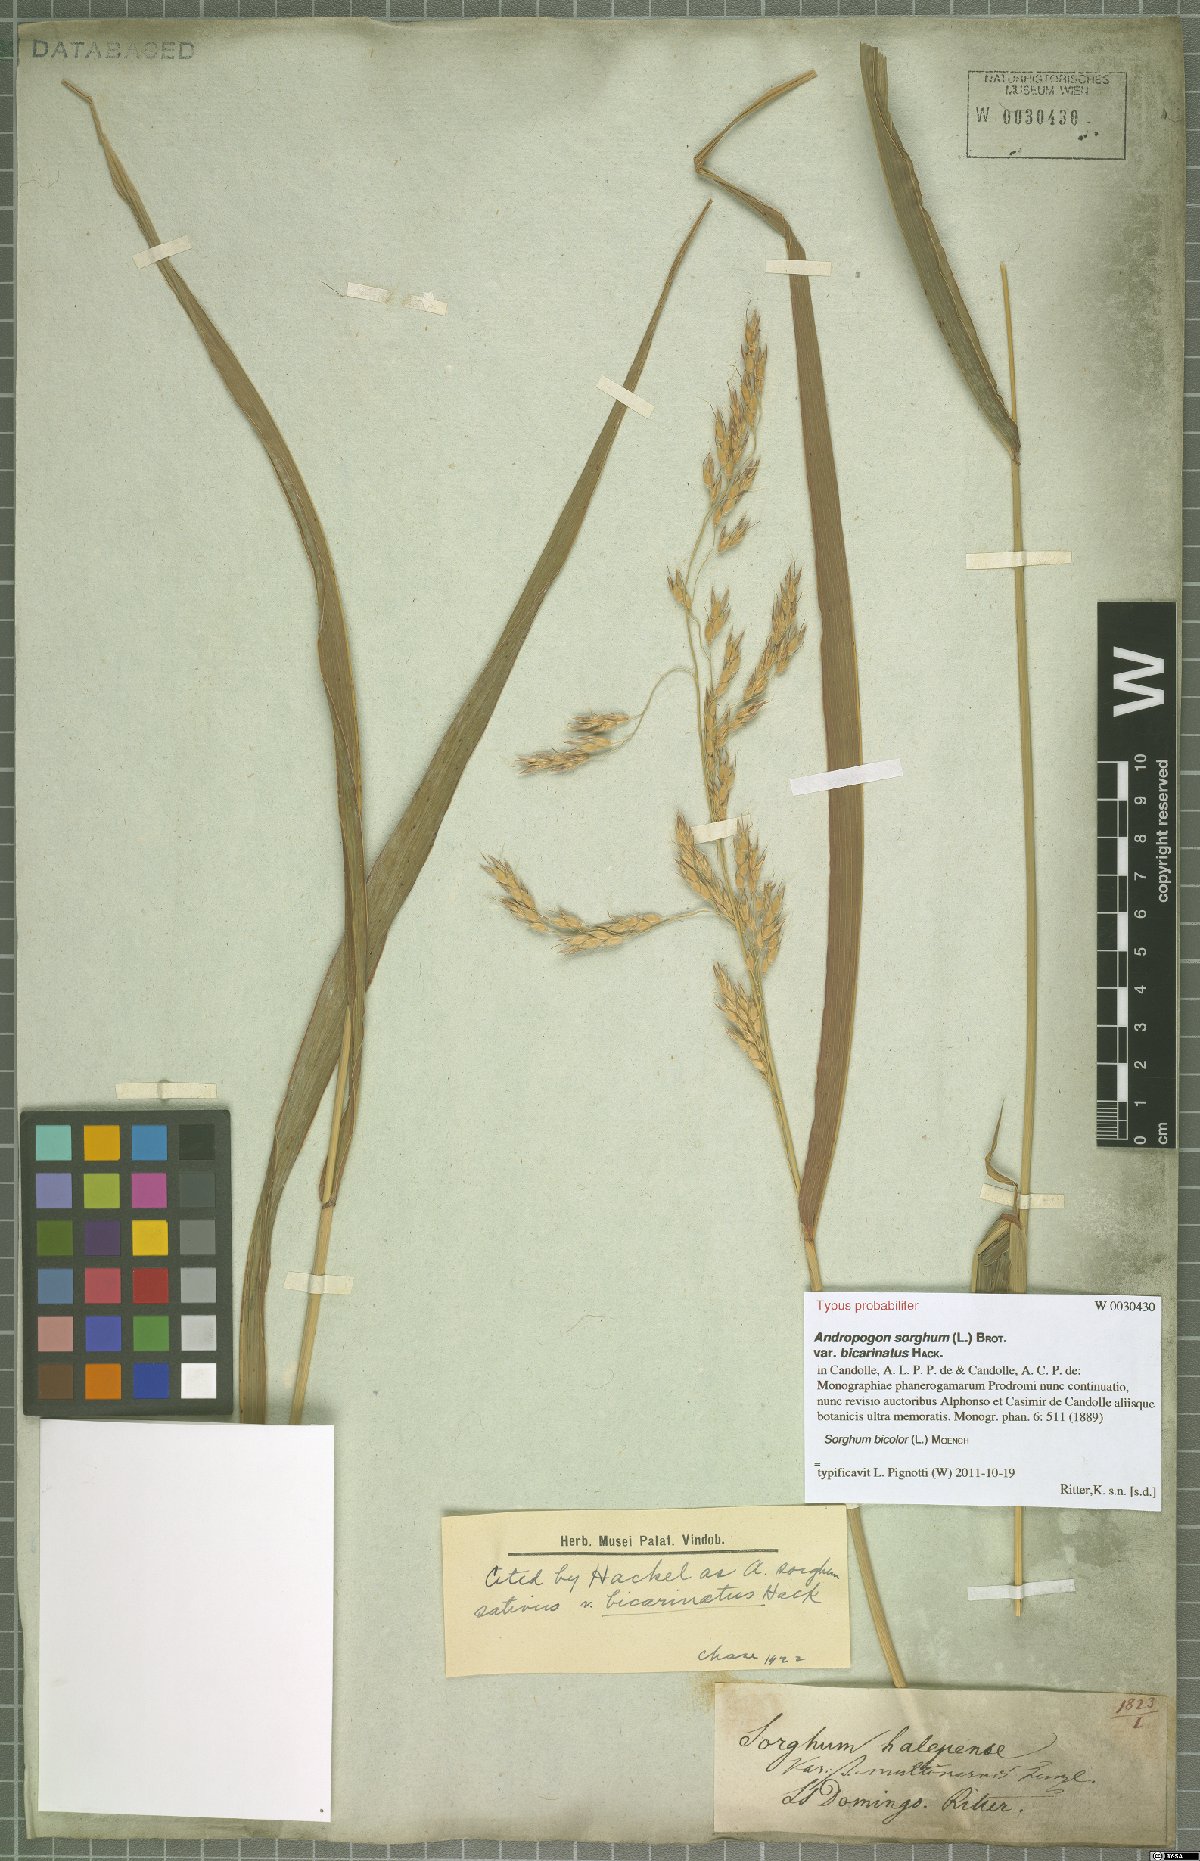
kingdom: Plantae
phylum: Tracheophyta
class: Liliopsida
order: Poales
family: Poaceae
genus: Sorghum
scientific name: Sorghum bicolor
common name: Sorghum
